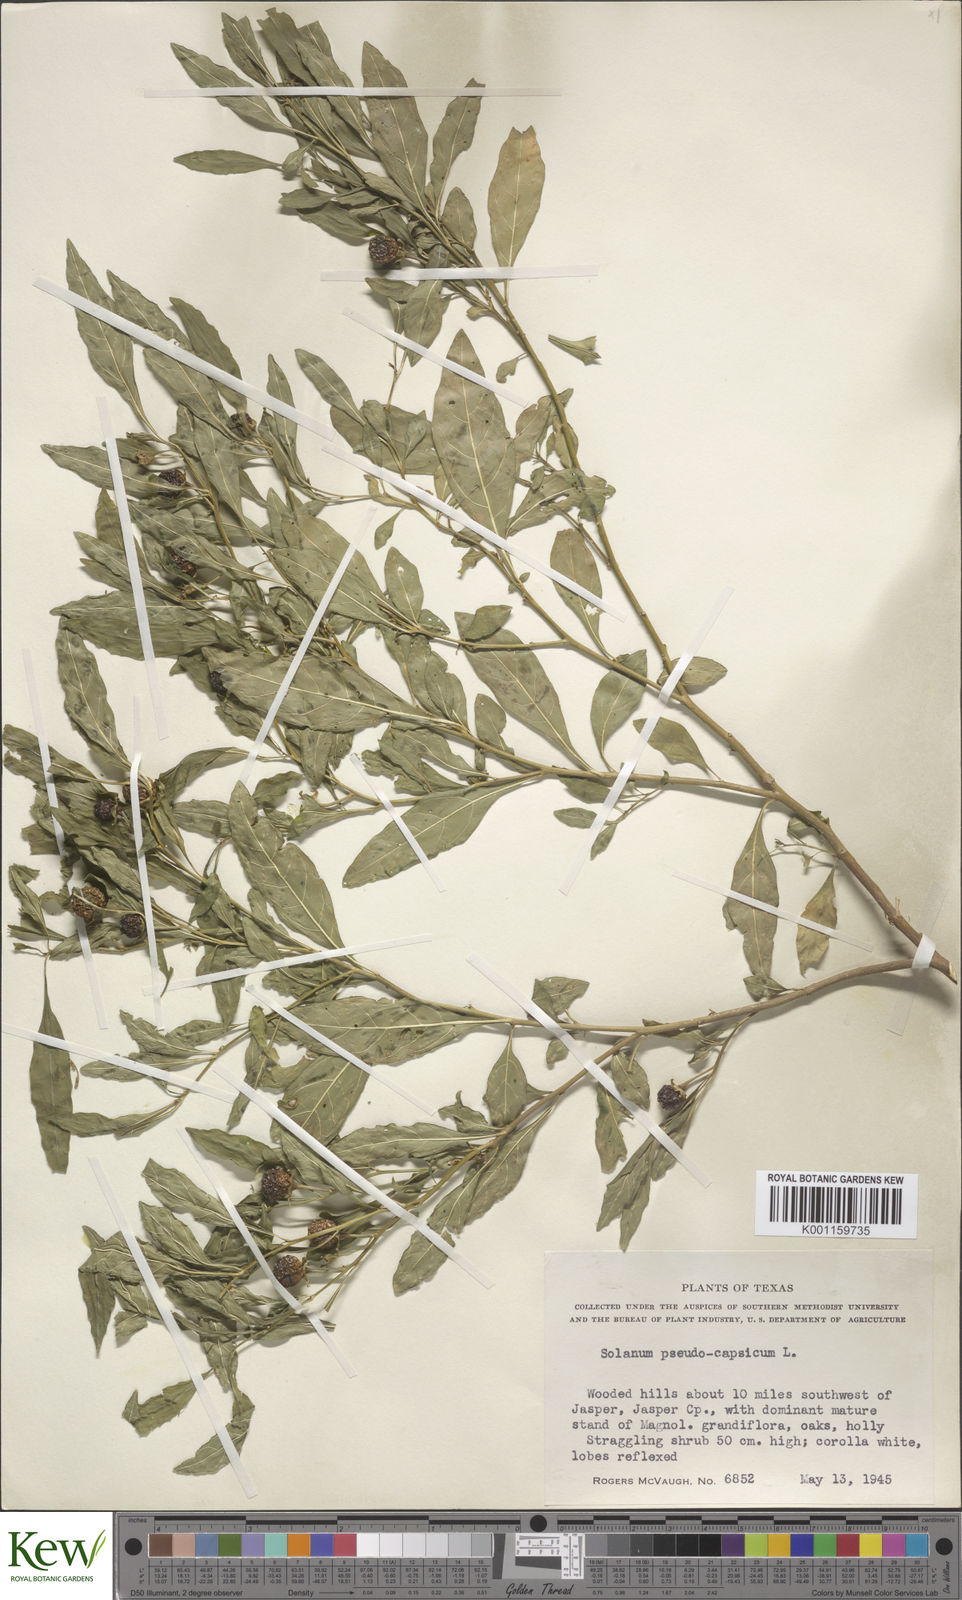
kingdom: Plantae
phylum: Tracheophyta
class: Magnoliopsida
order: Solanales
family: Solanaceae
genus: Solanum
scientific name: Solanum pseudocapsicum
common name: Jerusalem cherry
